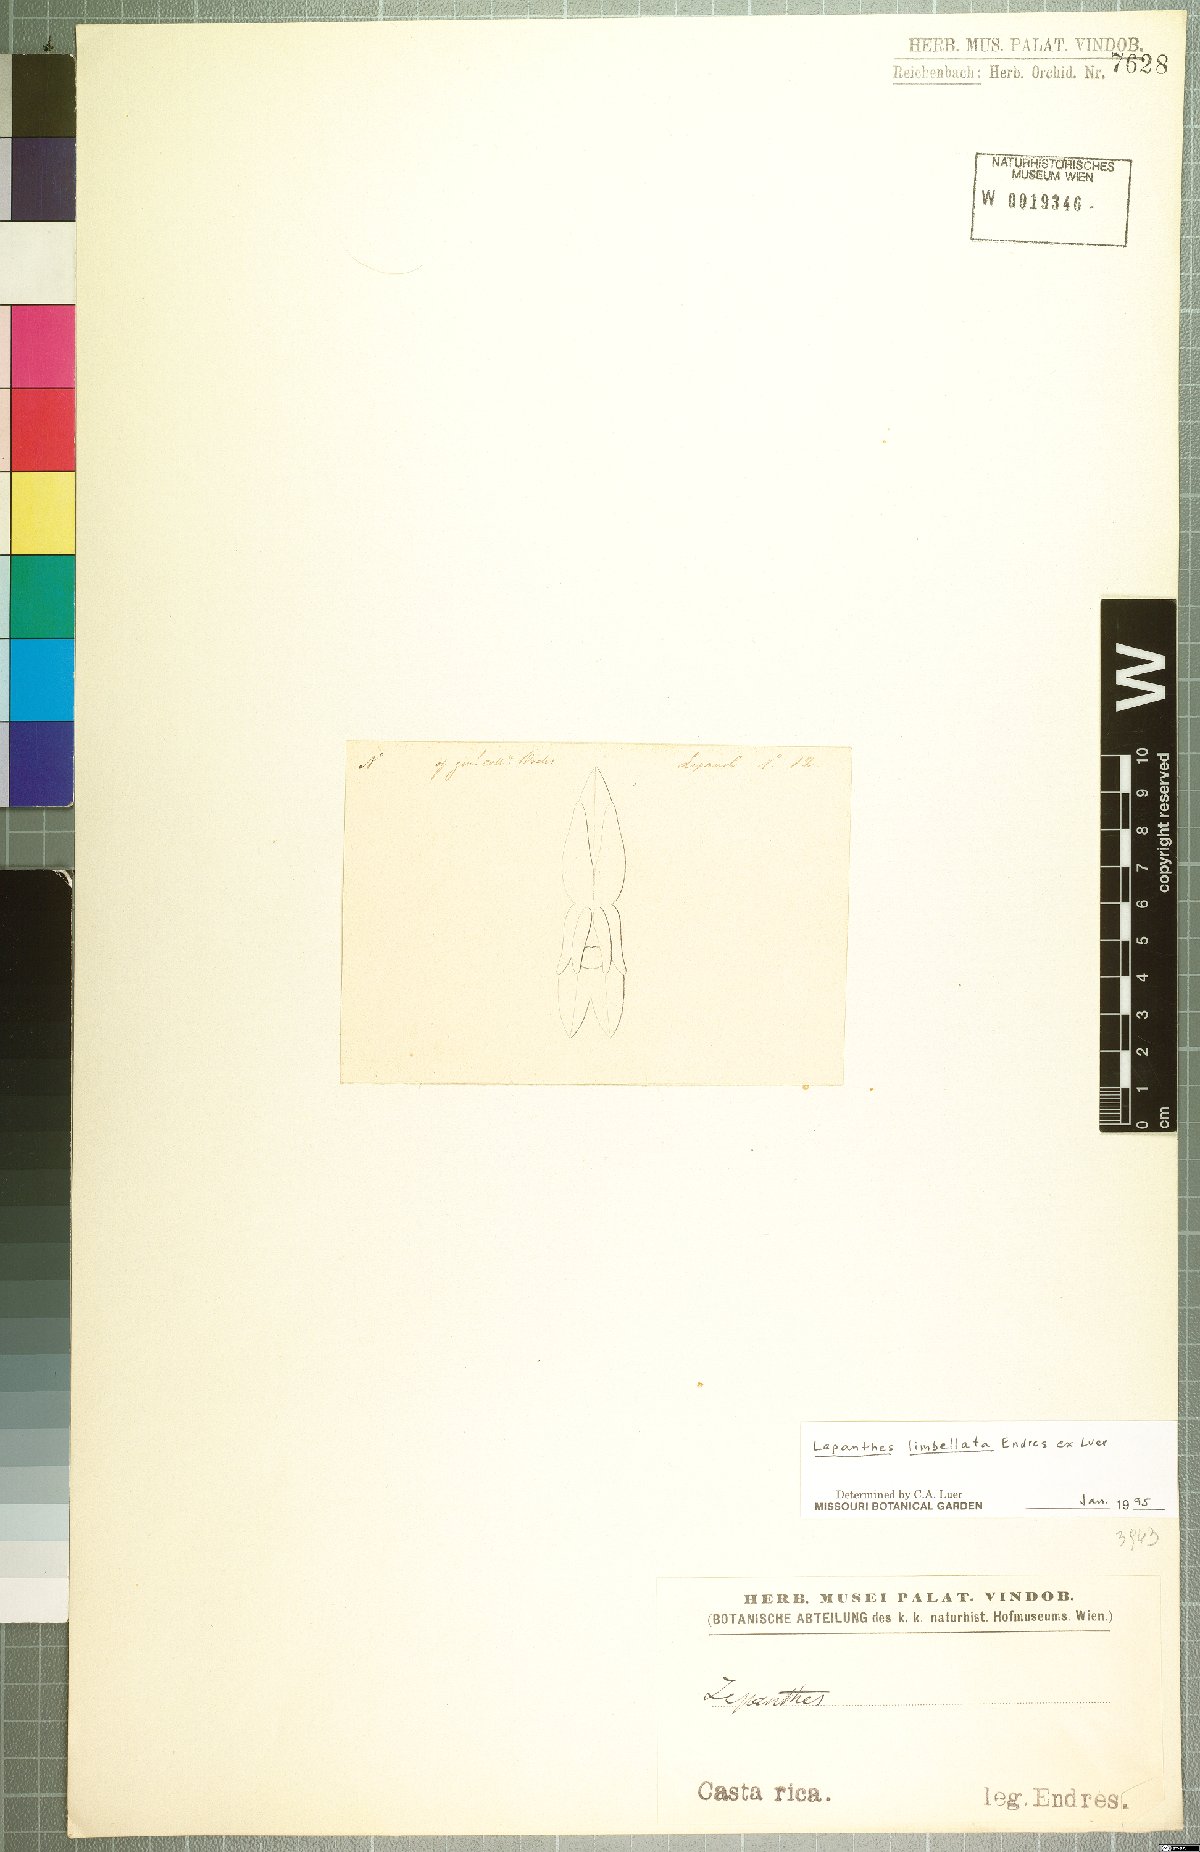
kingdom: Plantae
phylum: Tracheophyta
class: Liliopsida
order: Asparagales
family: Orchidaceae
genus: Lepanthes
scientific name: Lepanthes limbellata
